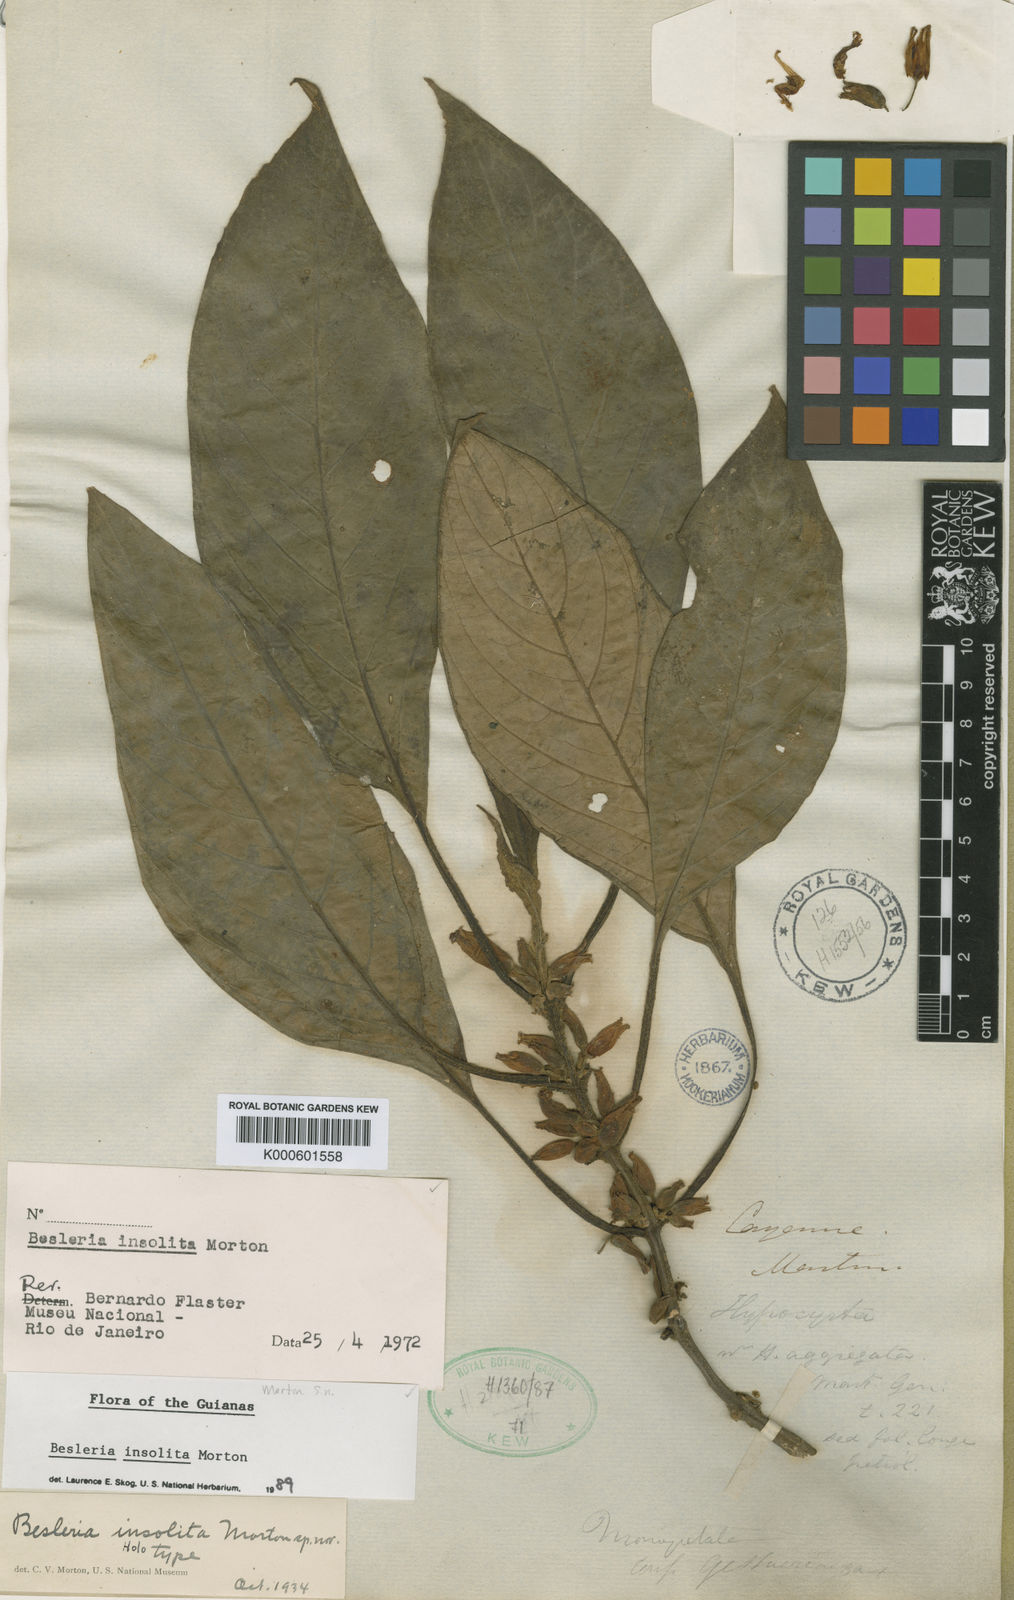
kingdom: Plantae
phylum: Tracheophyta
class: Magnoliopsida
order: Lamiales
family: Gesneriaceae
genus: Besleria
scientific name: Besleria insolita
